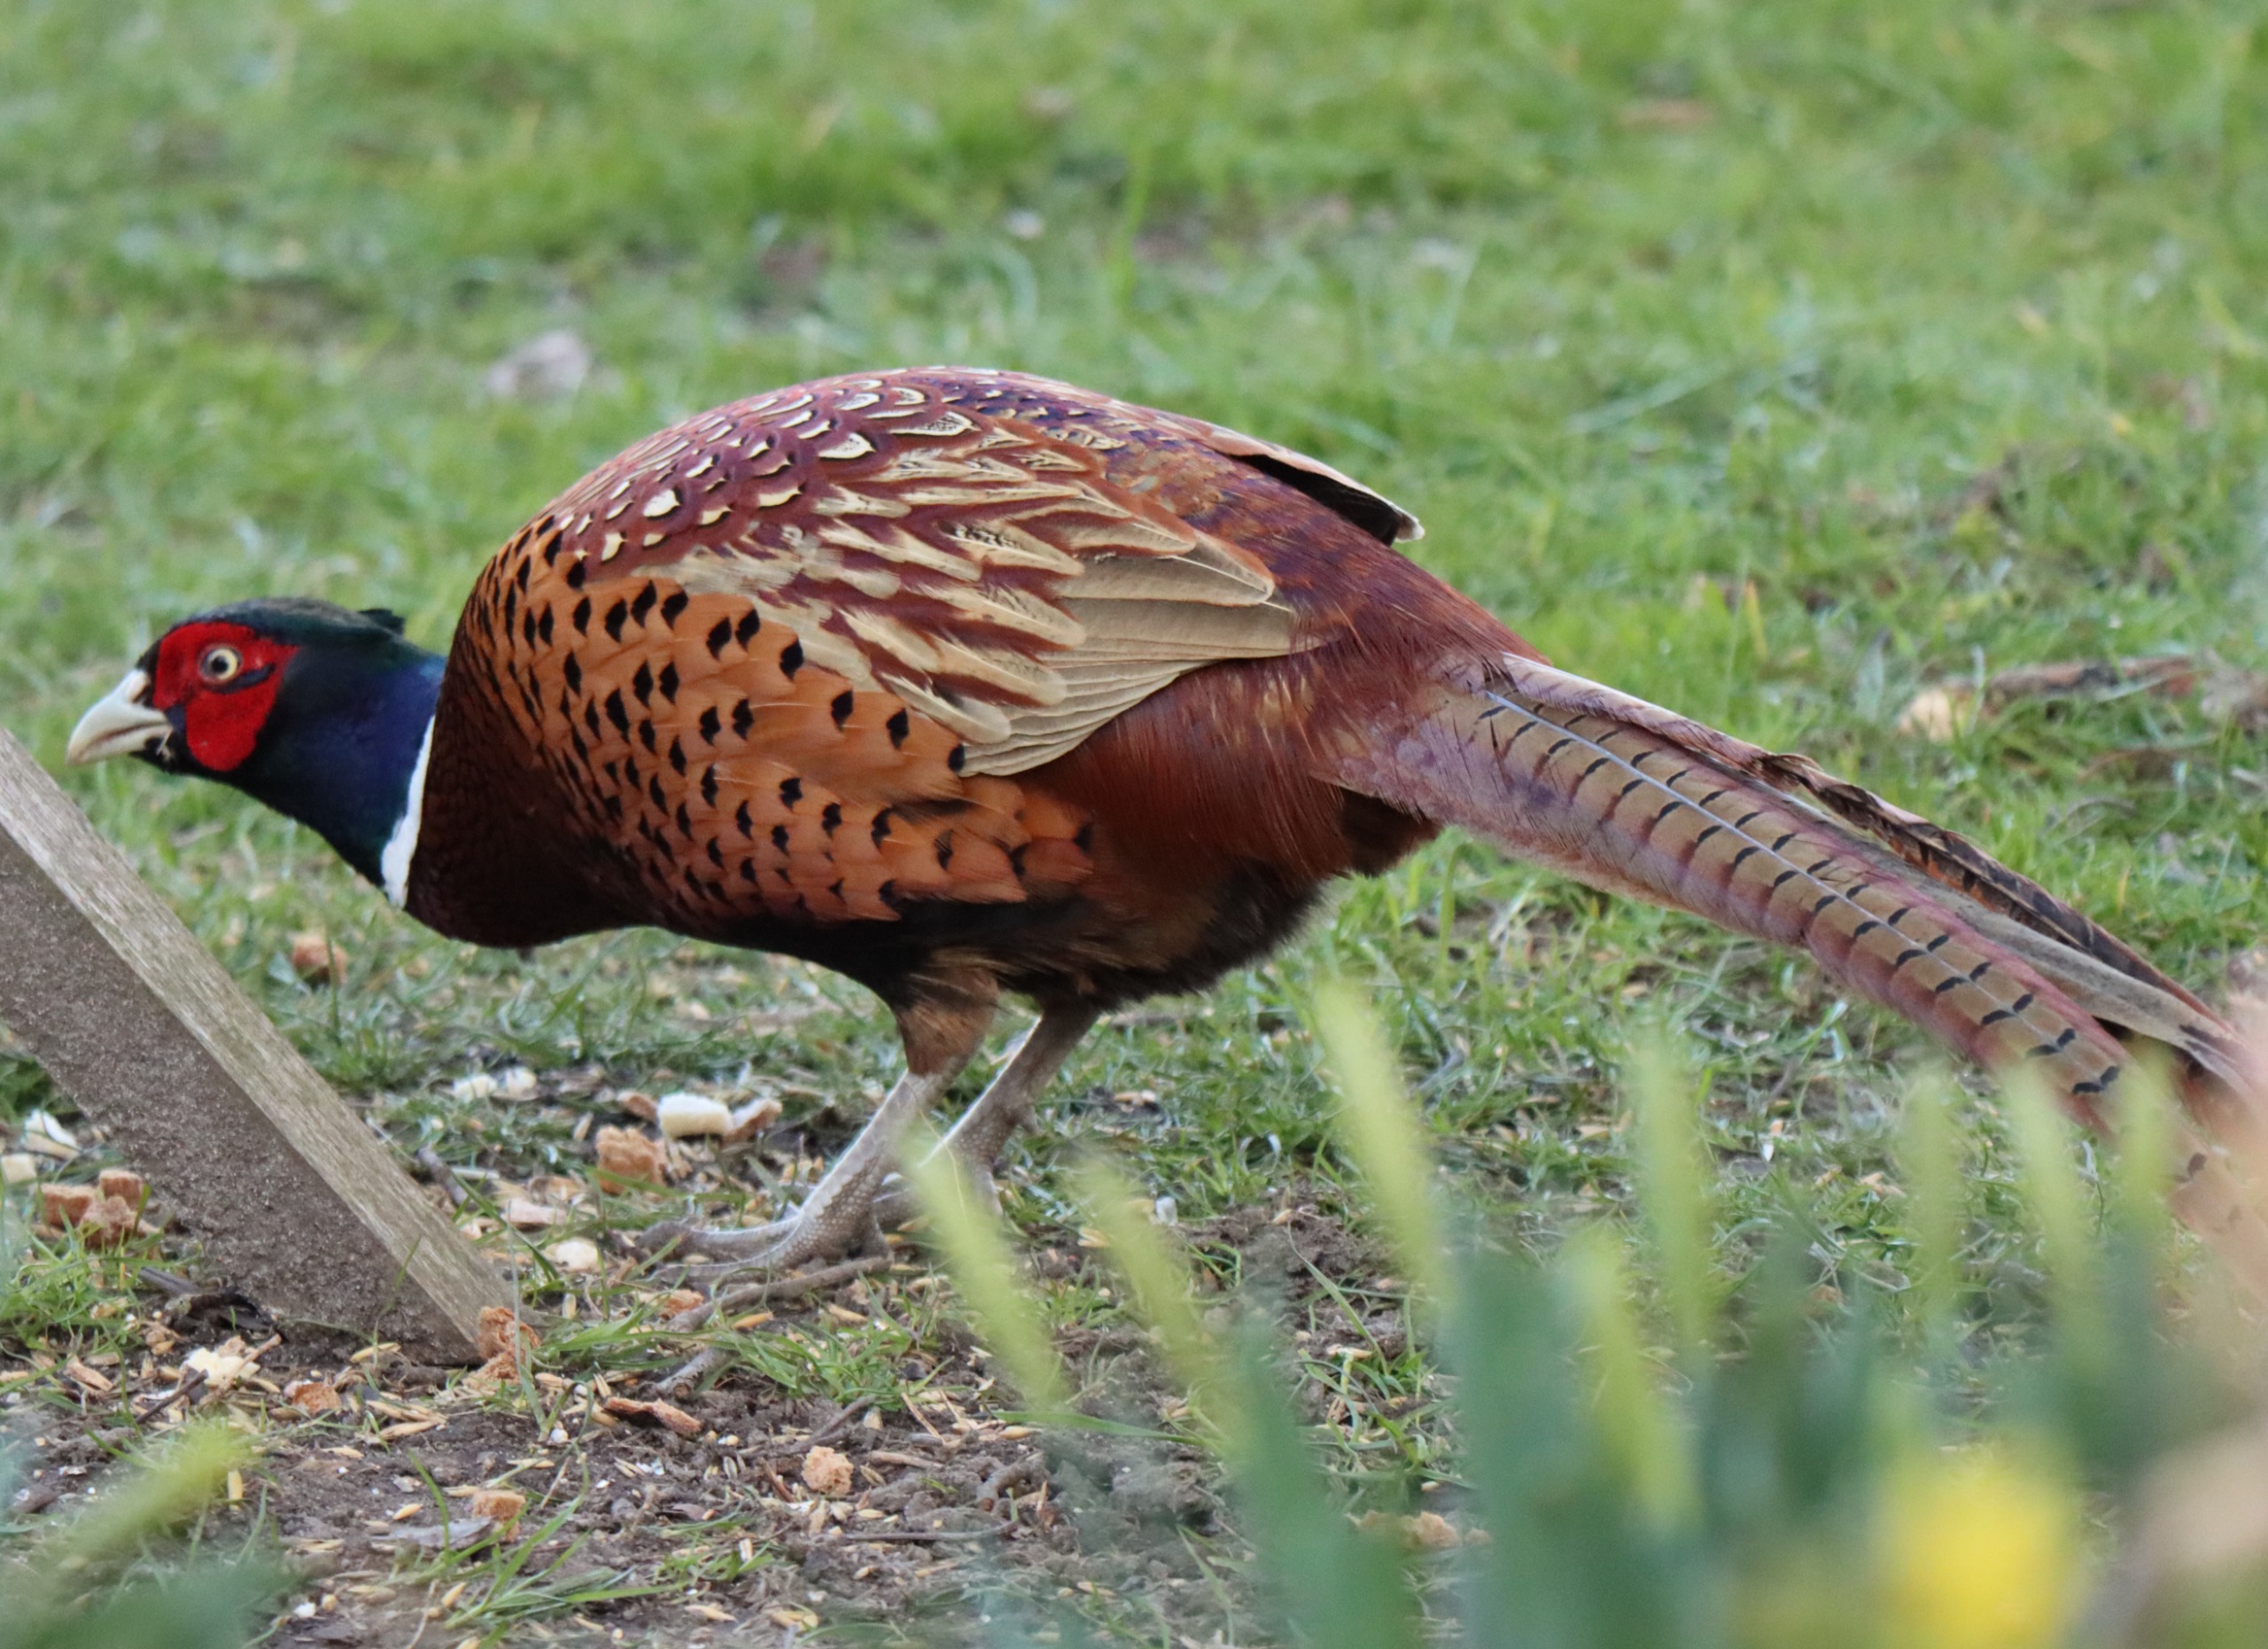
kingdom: Animalia
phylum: Chordata
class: Aves
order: Galliformes
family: Phasianidae
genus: Phasianus
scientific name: Phasianus colchicus
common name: Fasan
